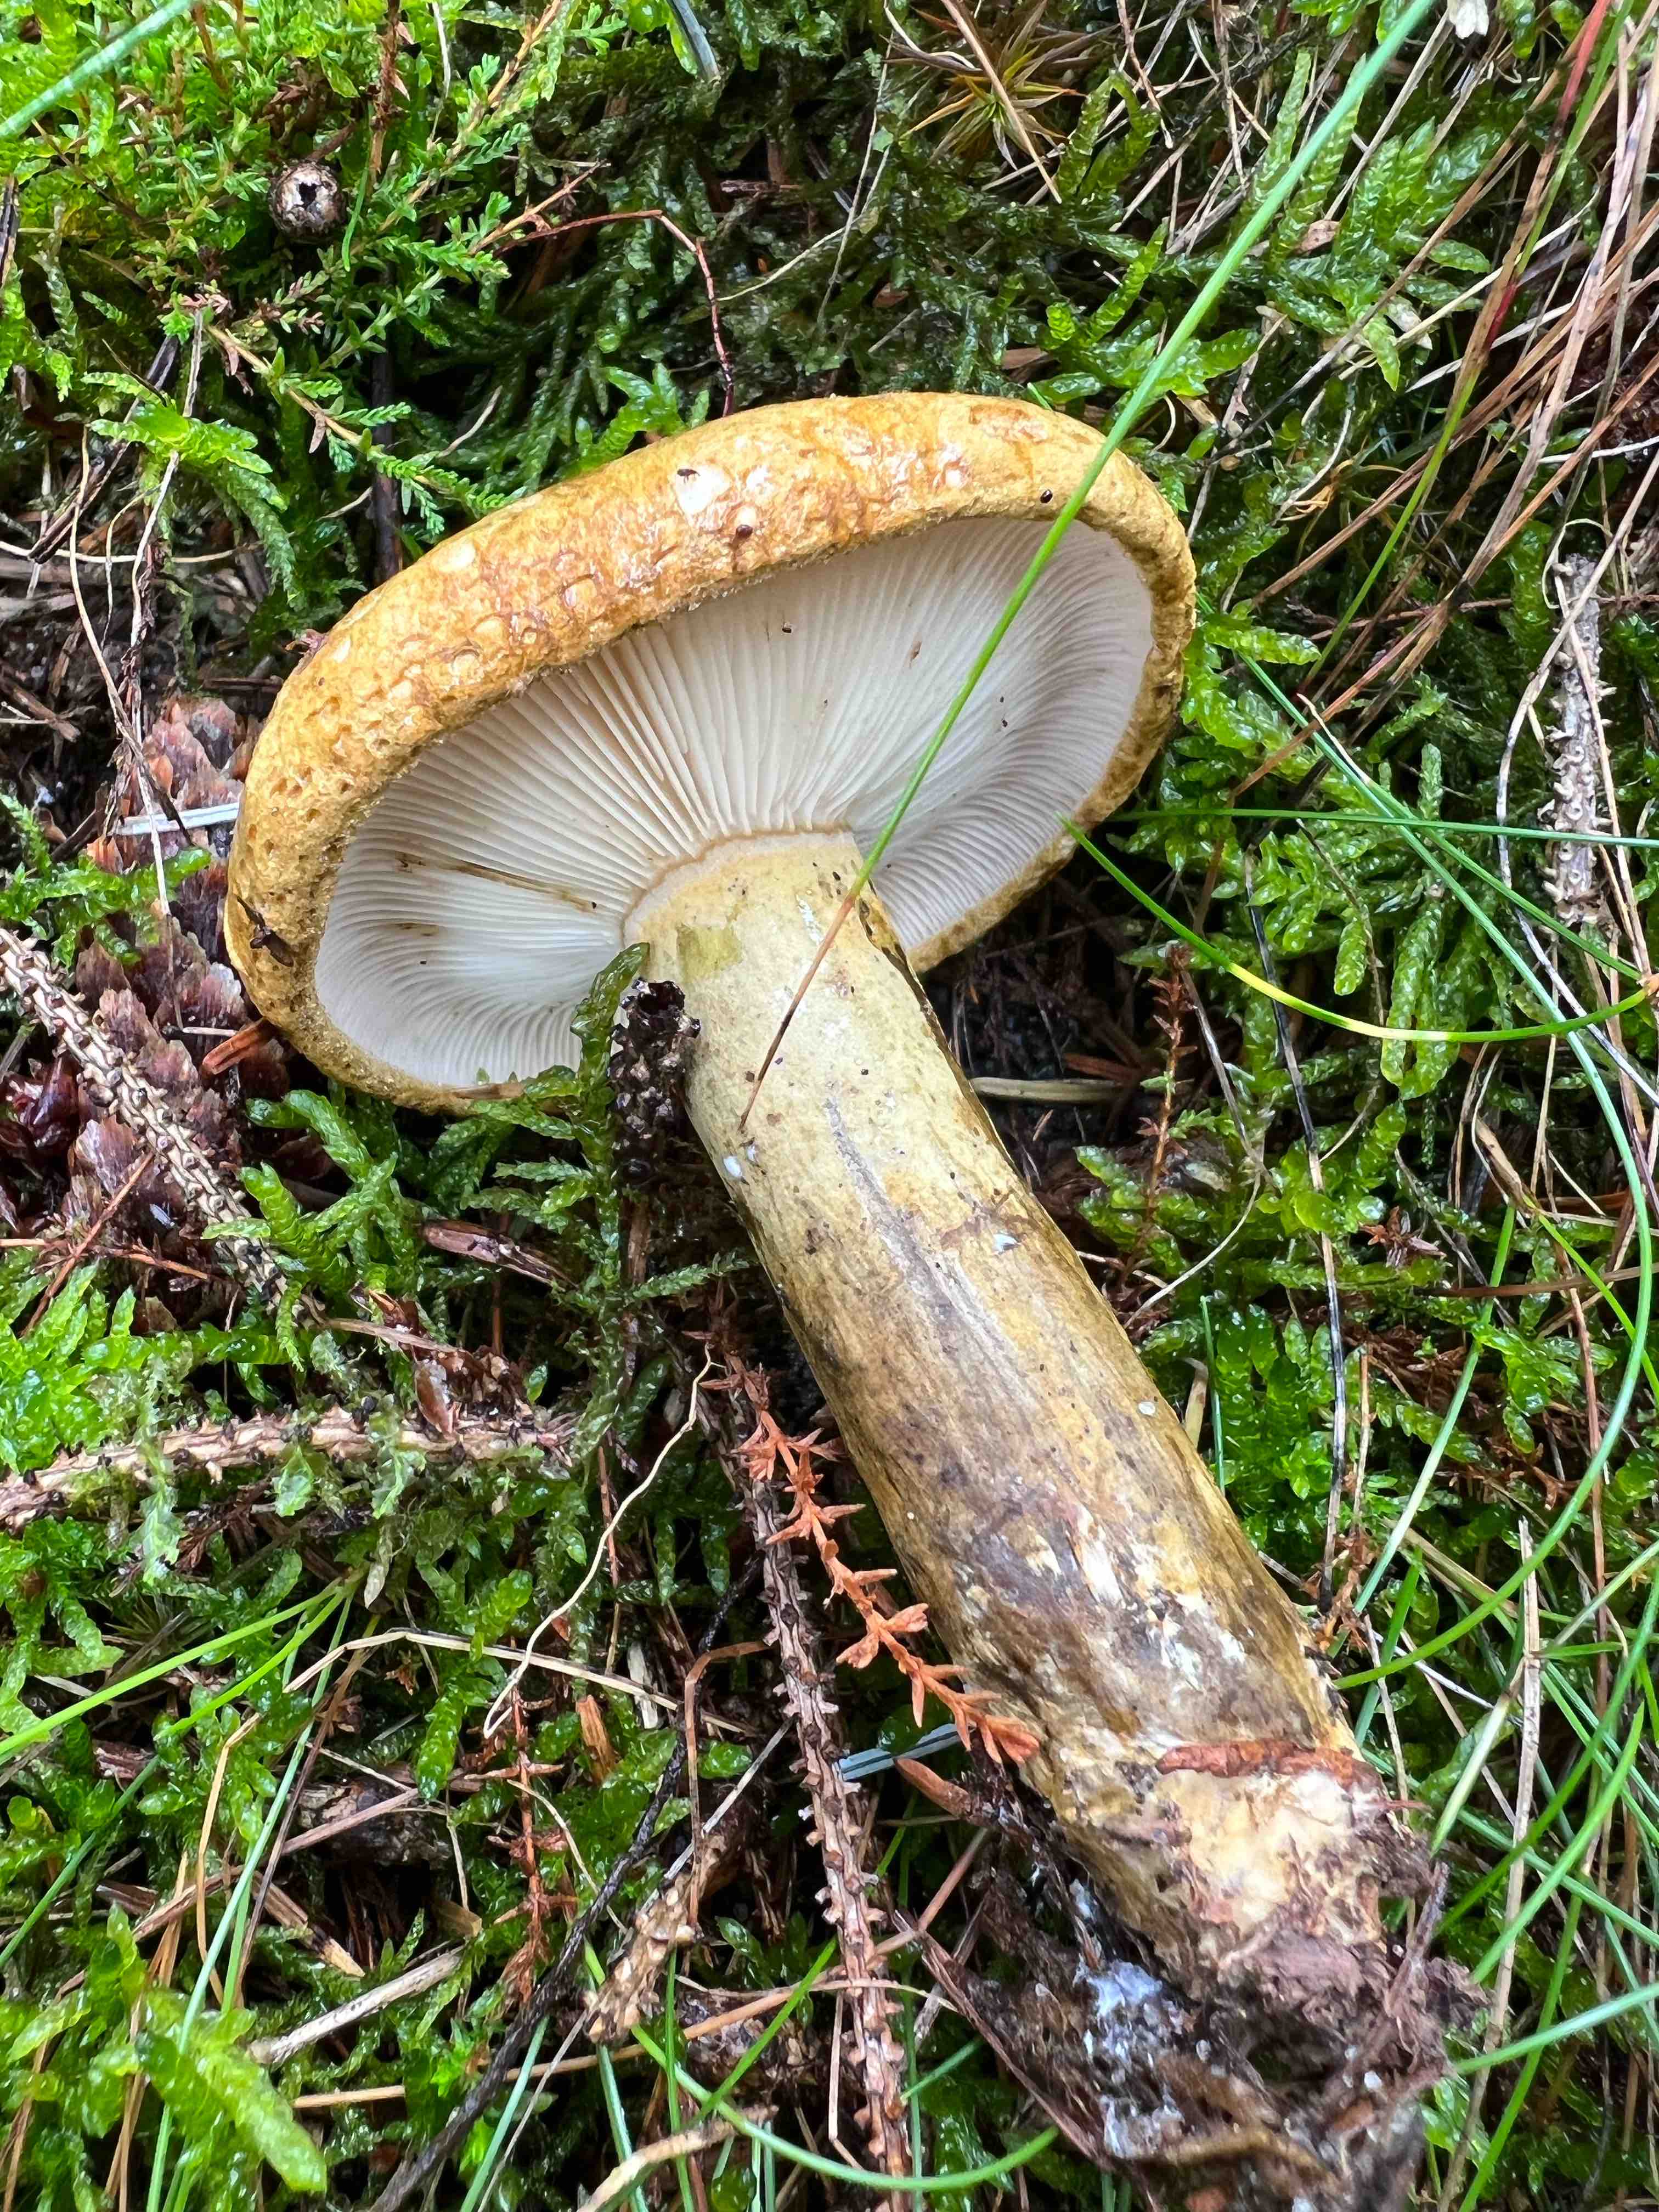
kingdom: Fungi
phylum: Basidiomycota
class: Agaricomycetes
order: Russulales
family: Russulaceae
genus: Lactarius
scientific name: Lactarius necator
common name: manddraber-mælkehat
